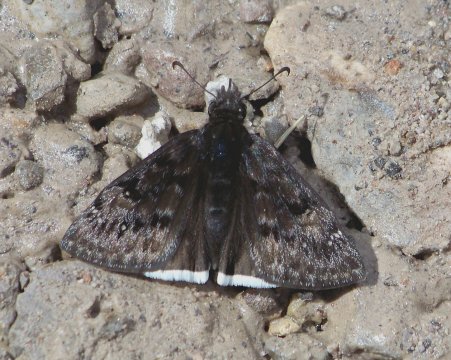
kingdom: Animalia
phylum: Arthropoda
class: Insecta
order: Lepidoptera
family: Hesperiidae
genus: Gesta
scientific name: Gesta
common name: Juvenal's Duskywing
